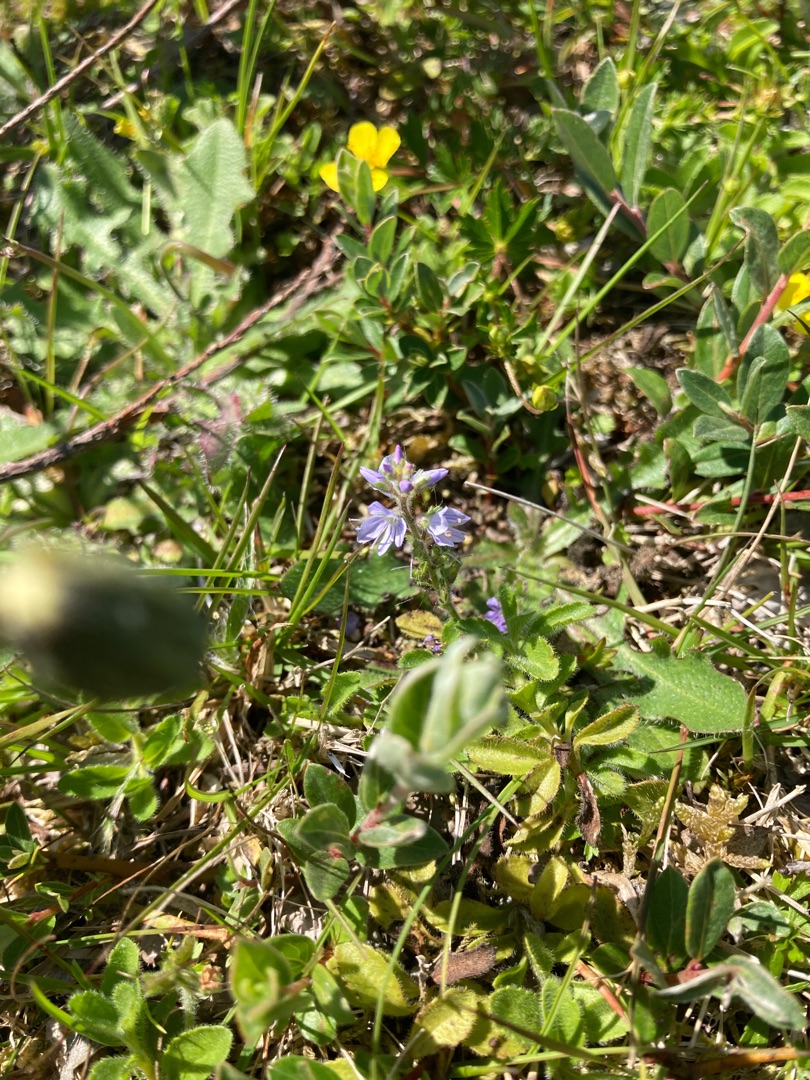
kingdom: Plantae
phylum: Tracheophyta
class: Magnoliopsida
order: Lamiales
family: Plantaginaceae
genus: Veronica
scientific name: Veronica officinalis
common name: Læge-ærenpris
